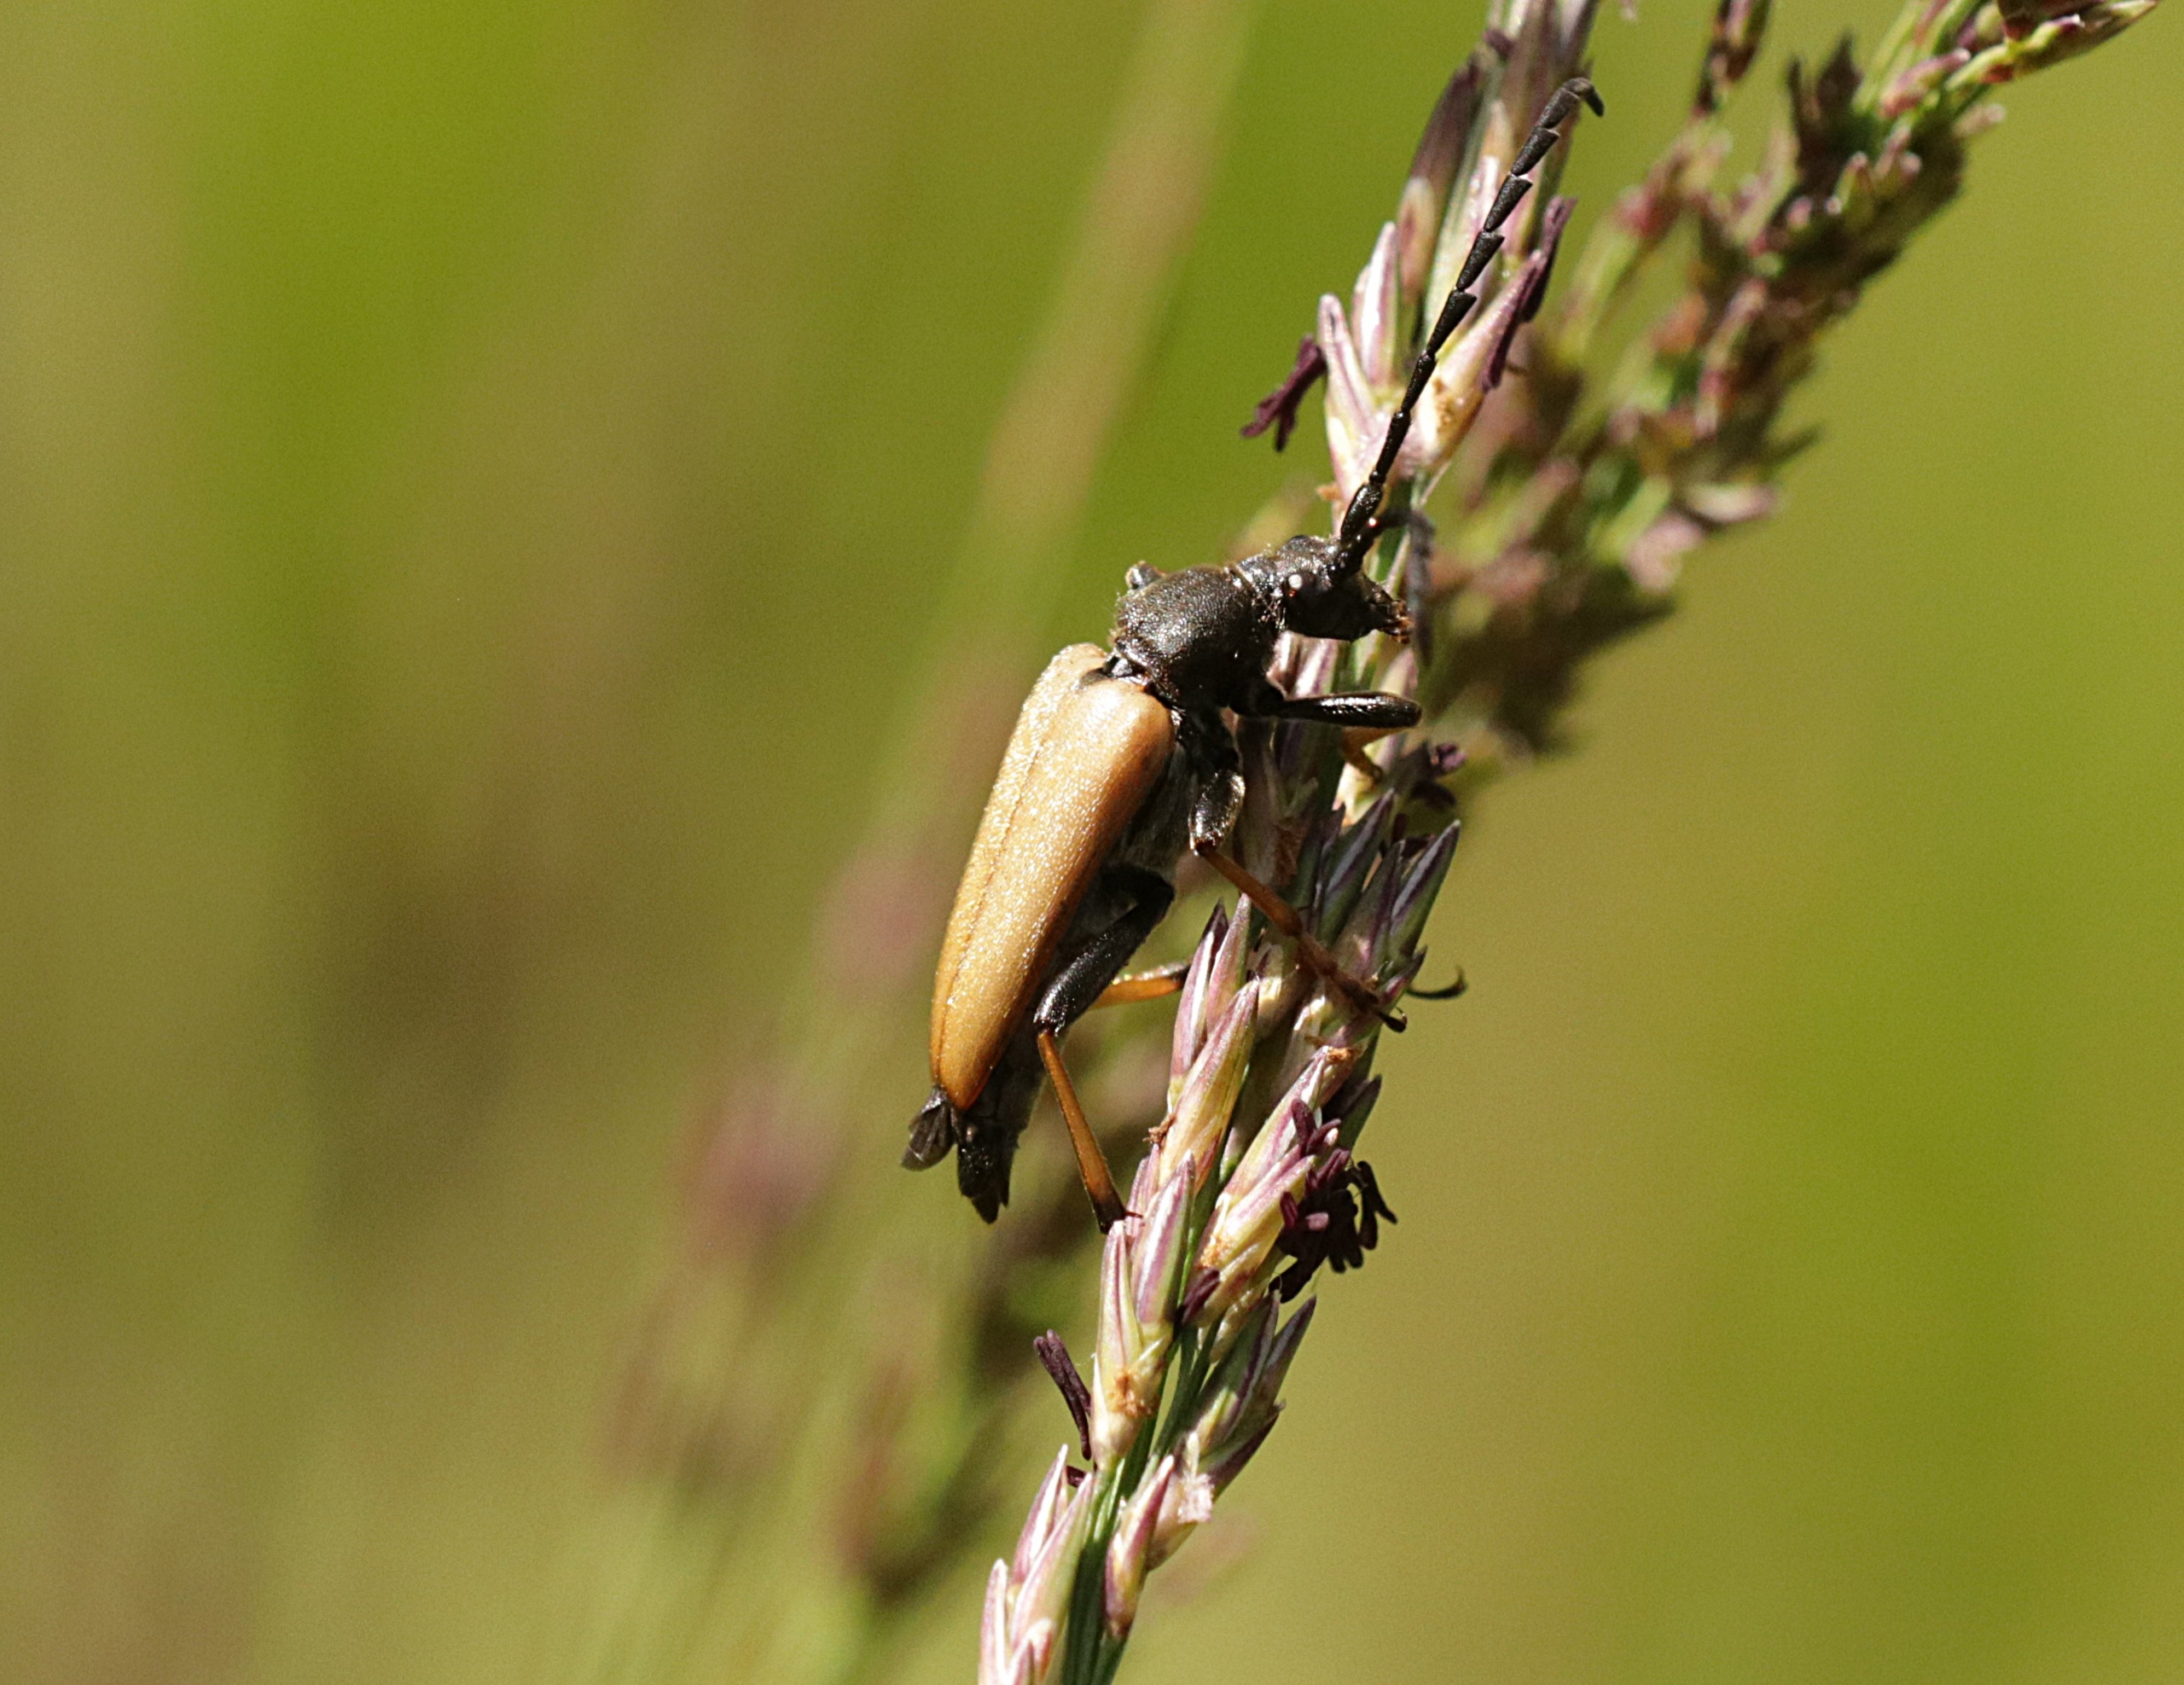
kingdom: Animalia
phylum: Arthropoda
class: Insecta
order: Coleoptera
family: Cerambycidae
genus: Stictoleptura
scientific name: Stictoleptura rubra
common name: Rød blomsterbuk
